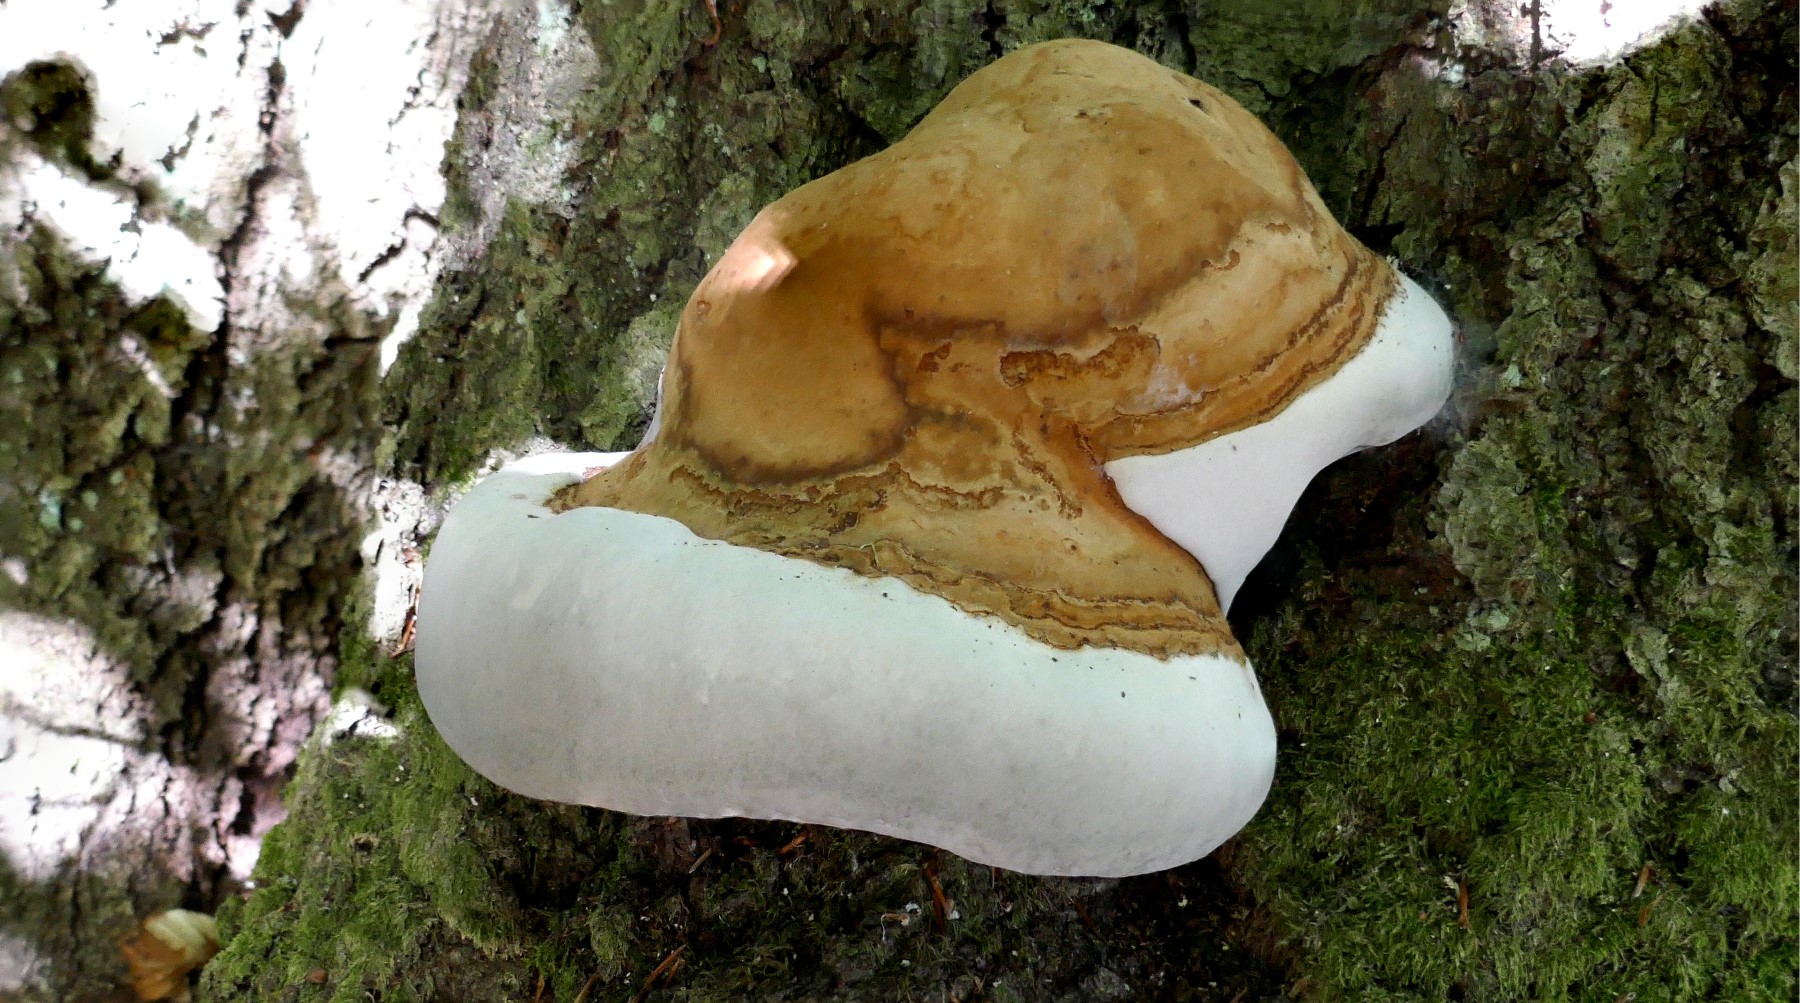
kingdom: Fungi
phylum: Basidiomycota
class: Agaricomycetes
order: Polyporales
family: Polyporaceae
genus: Fomes
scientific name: Fomes fomentarius
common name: tøndersvamp
